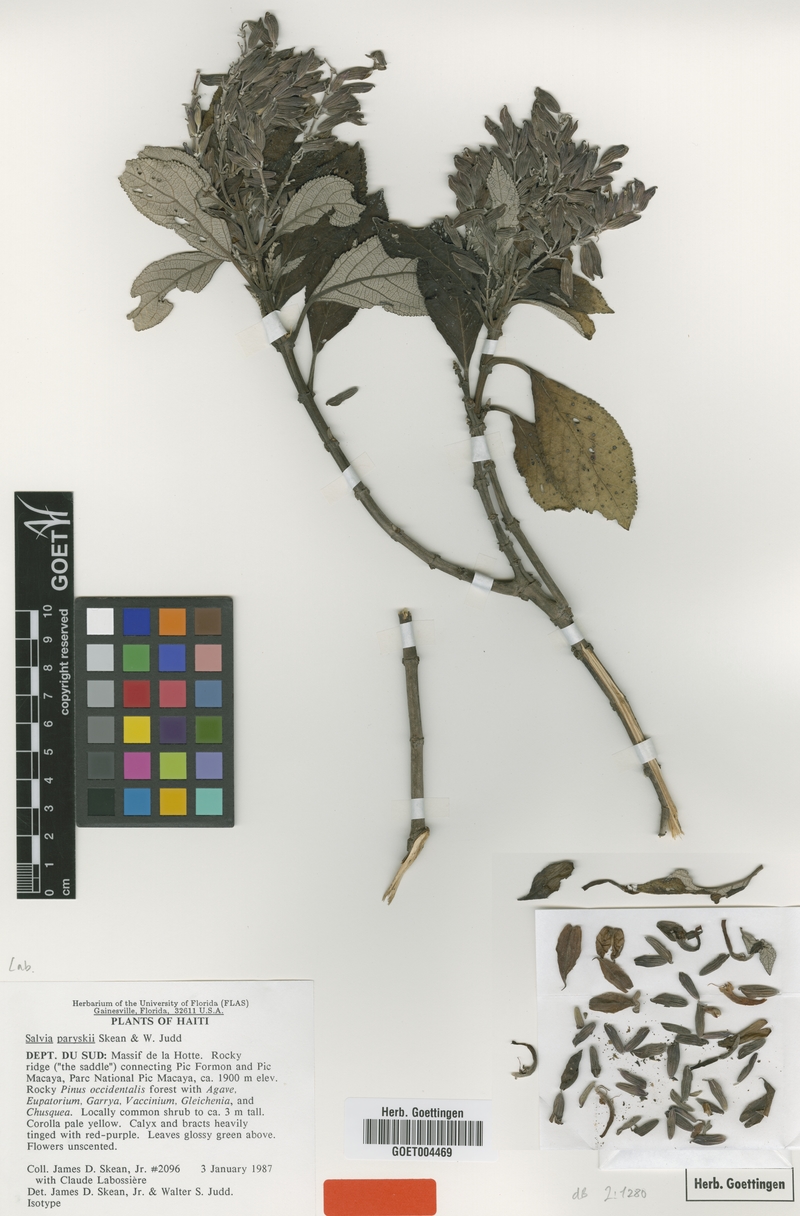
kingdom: Plantae
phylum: Tracheophyta
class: Magnoliopsida
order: Lamiales
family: Lamiaceae
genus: Salvia
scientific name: Salvia paryskii
